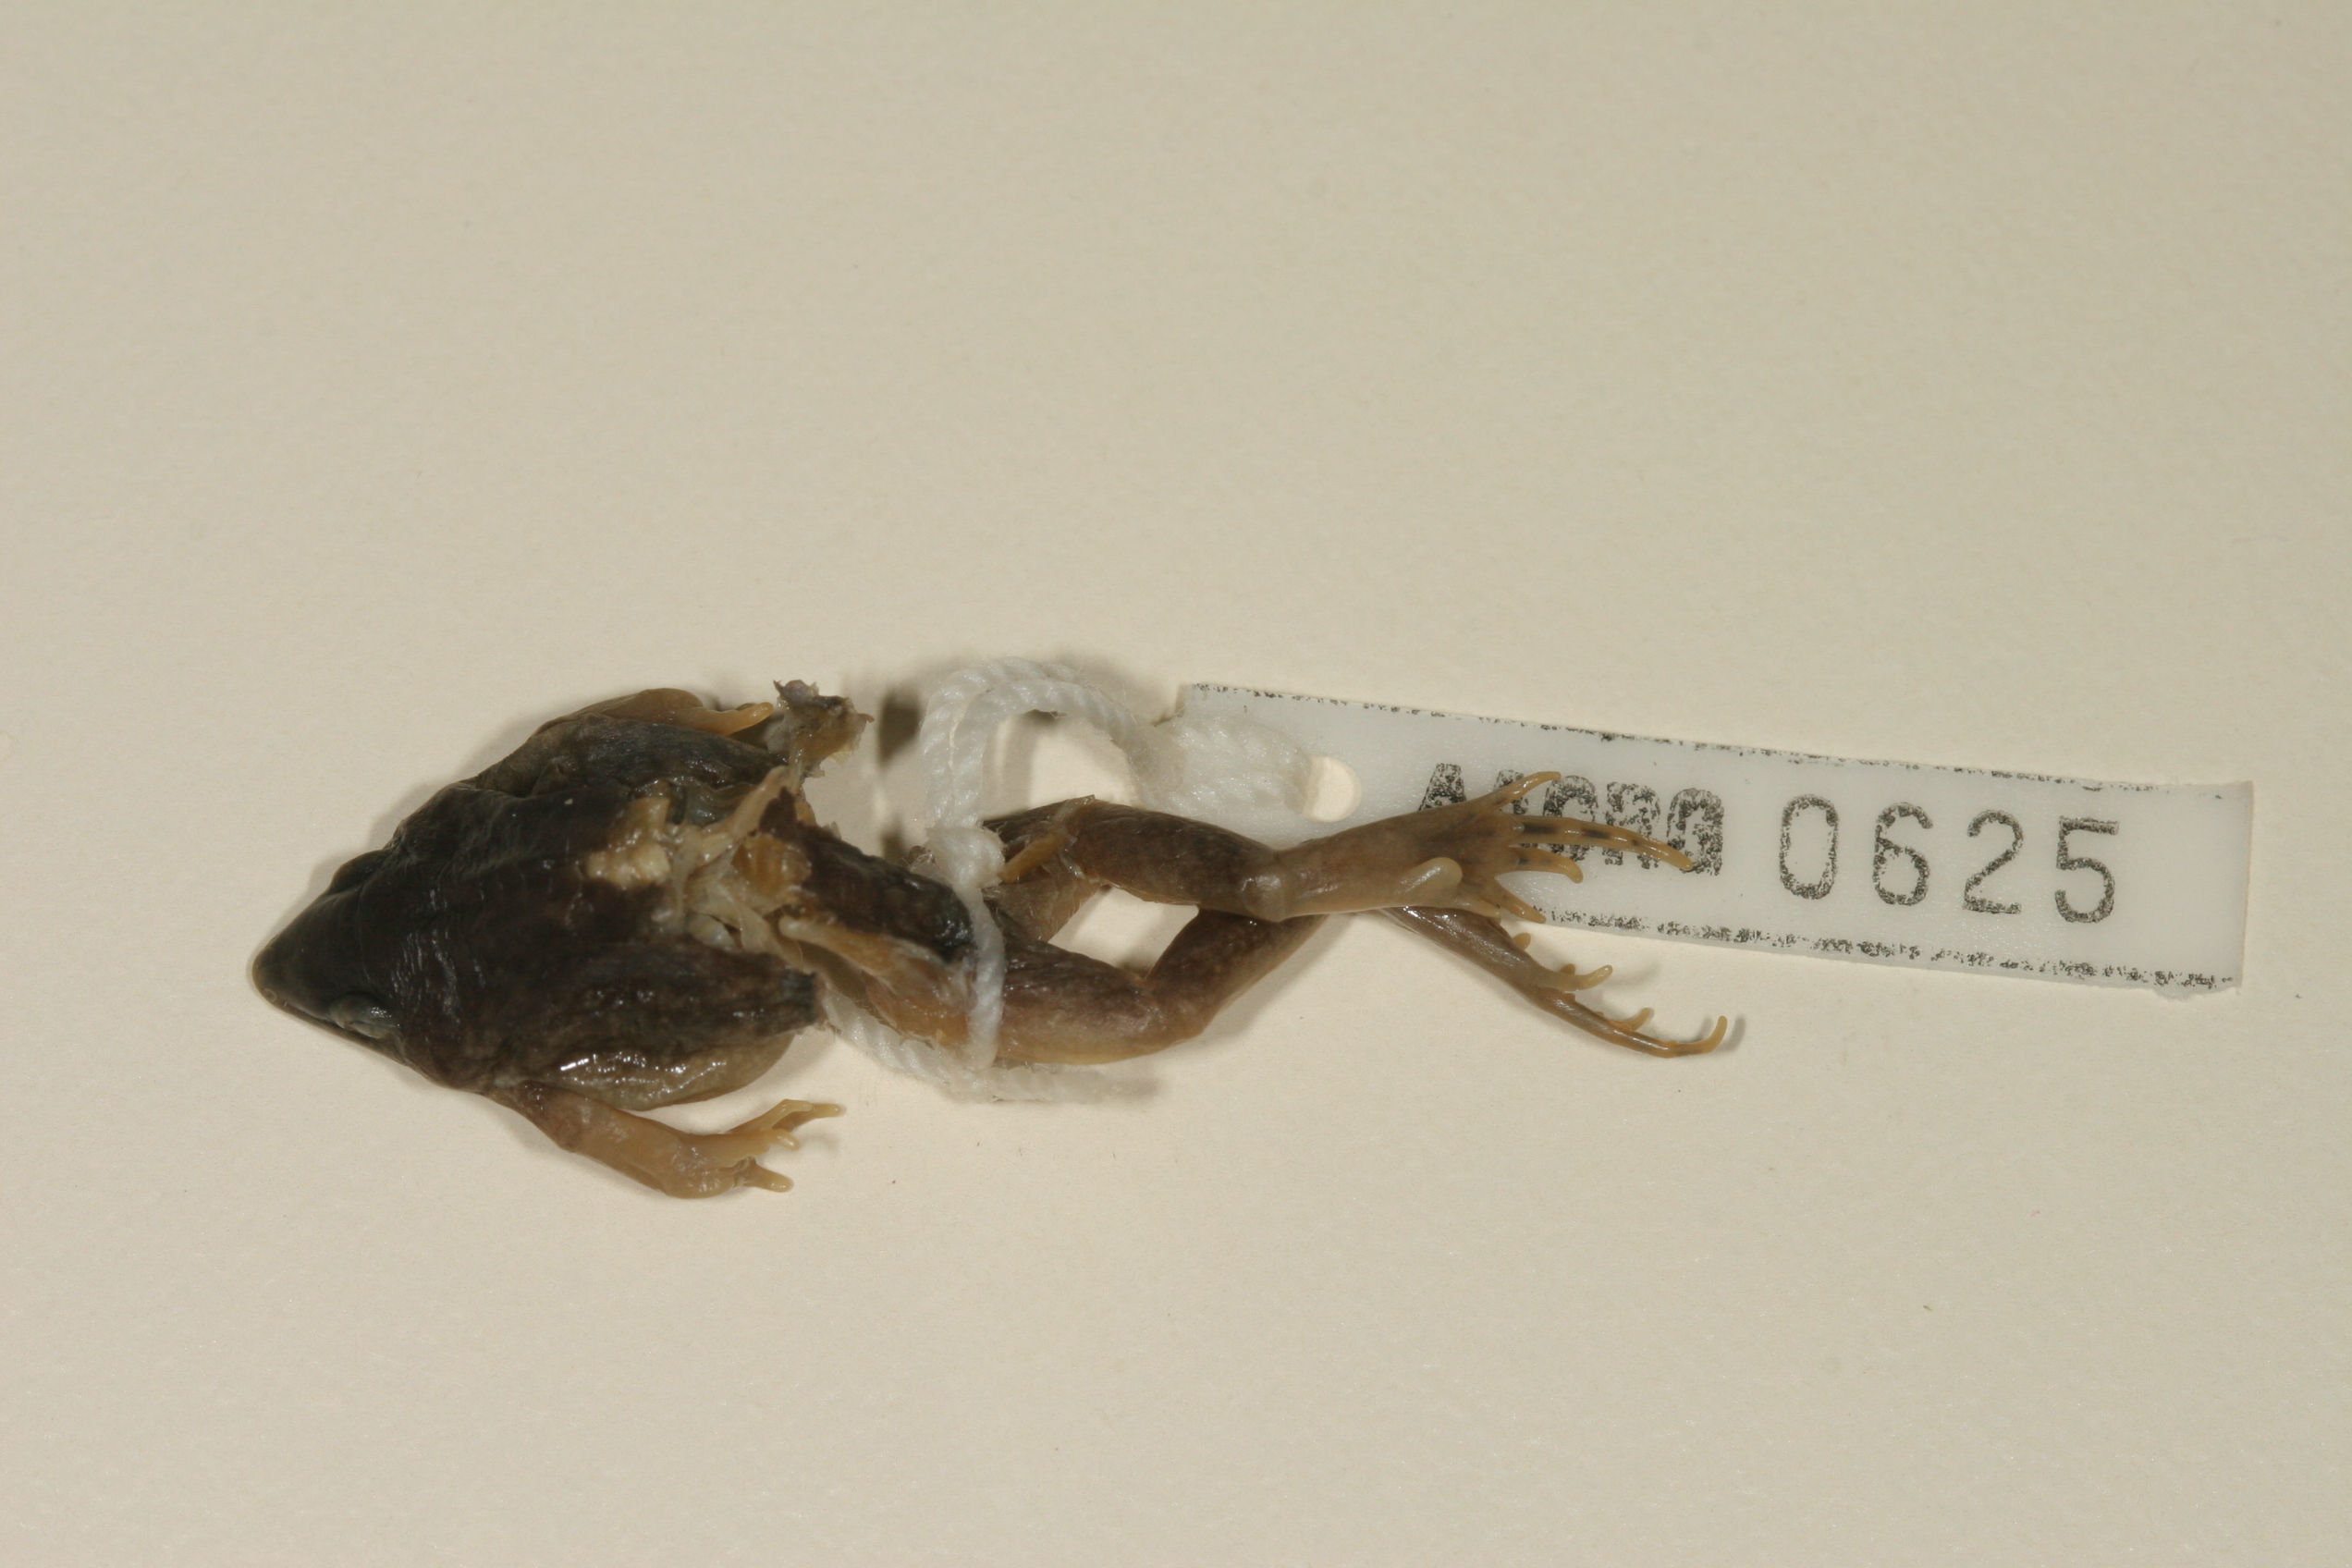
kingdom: Animalia
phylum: Chordata
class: Amphibia
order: Anura
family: Hemisotidae
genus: Hemisus
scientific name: Hemisus marmoratus
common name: Mottled shovel-nosed frog
